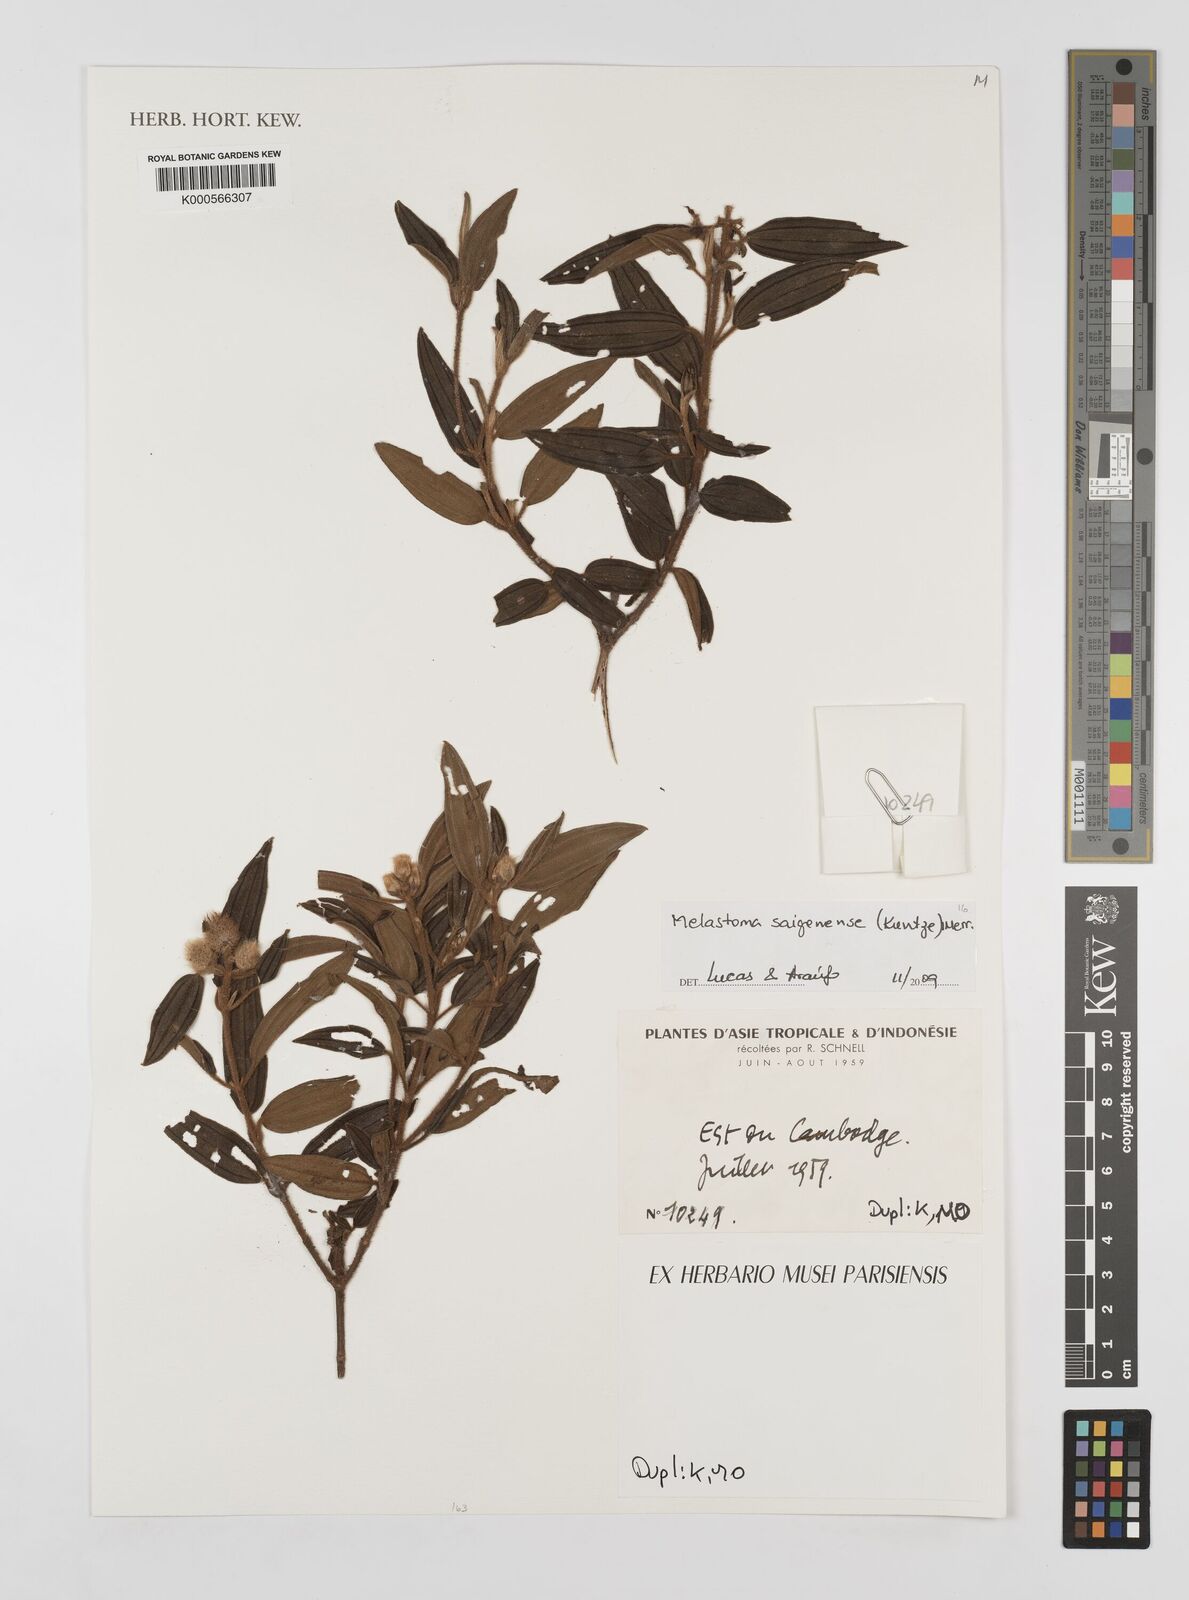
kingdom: Plantae
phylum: Tracheophyta
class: Magnoliopsida
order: Myrtales
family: Melastomataceae
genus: Melastoma
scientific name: Melastoma saigonense
